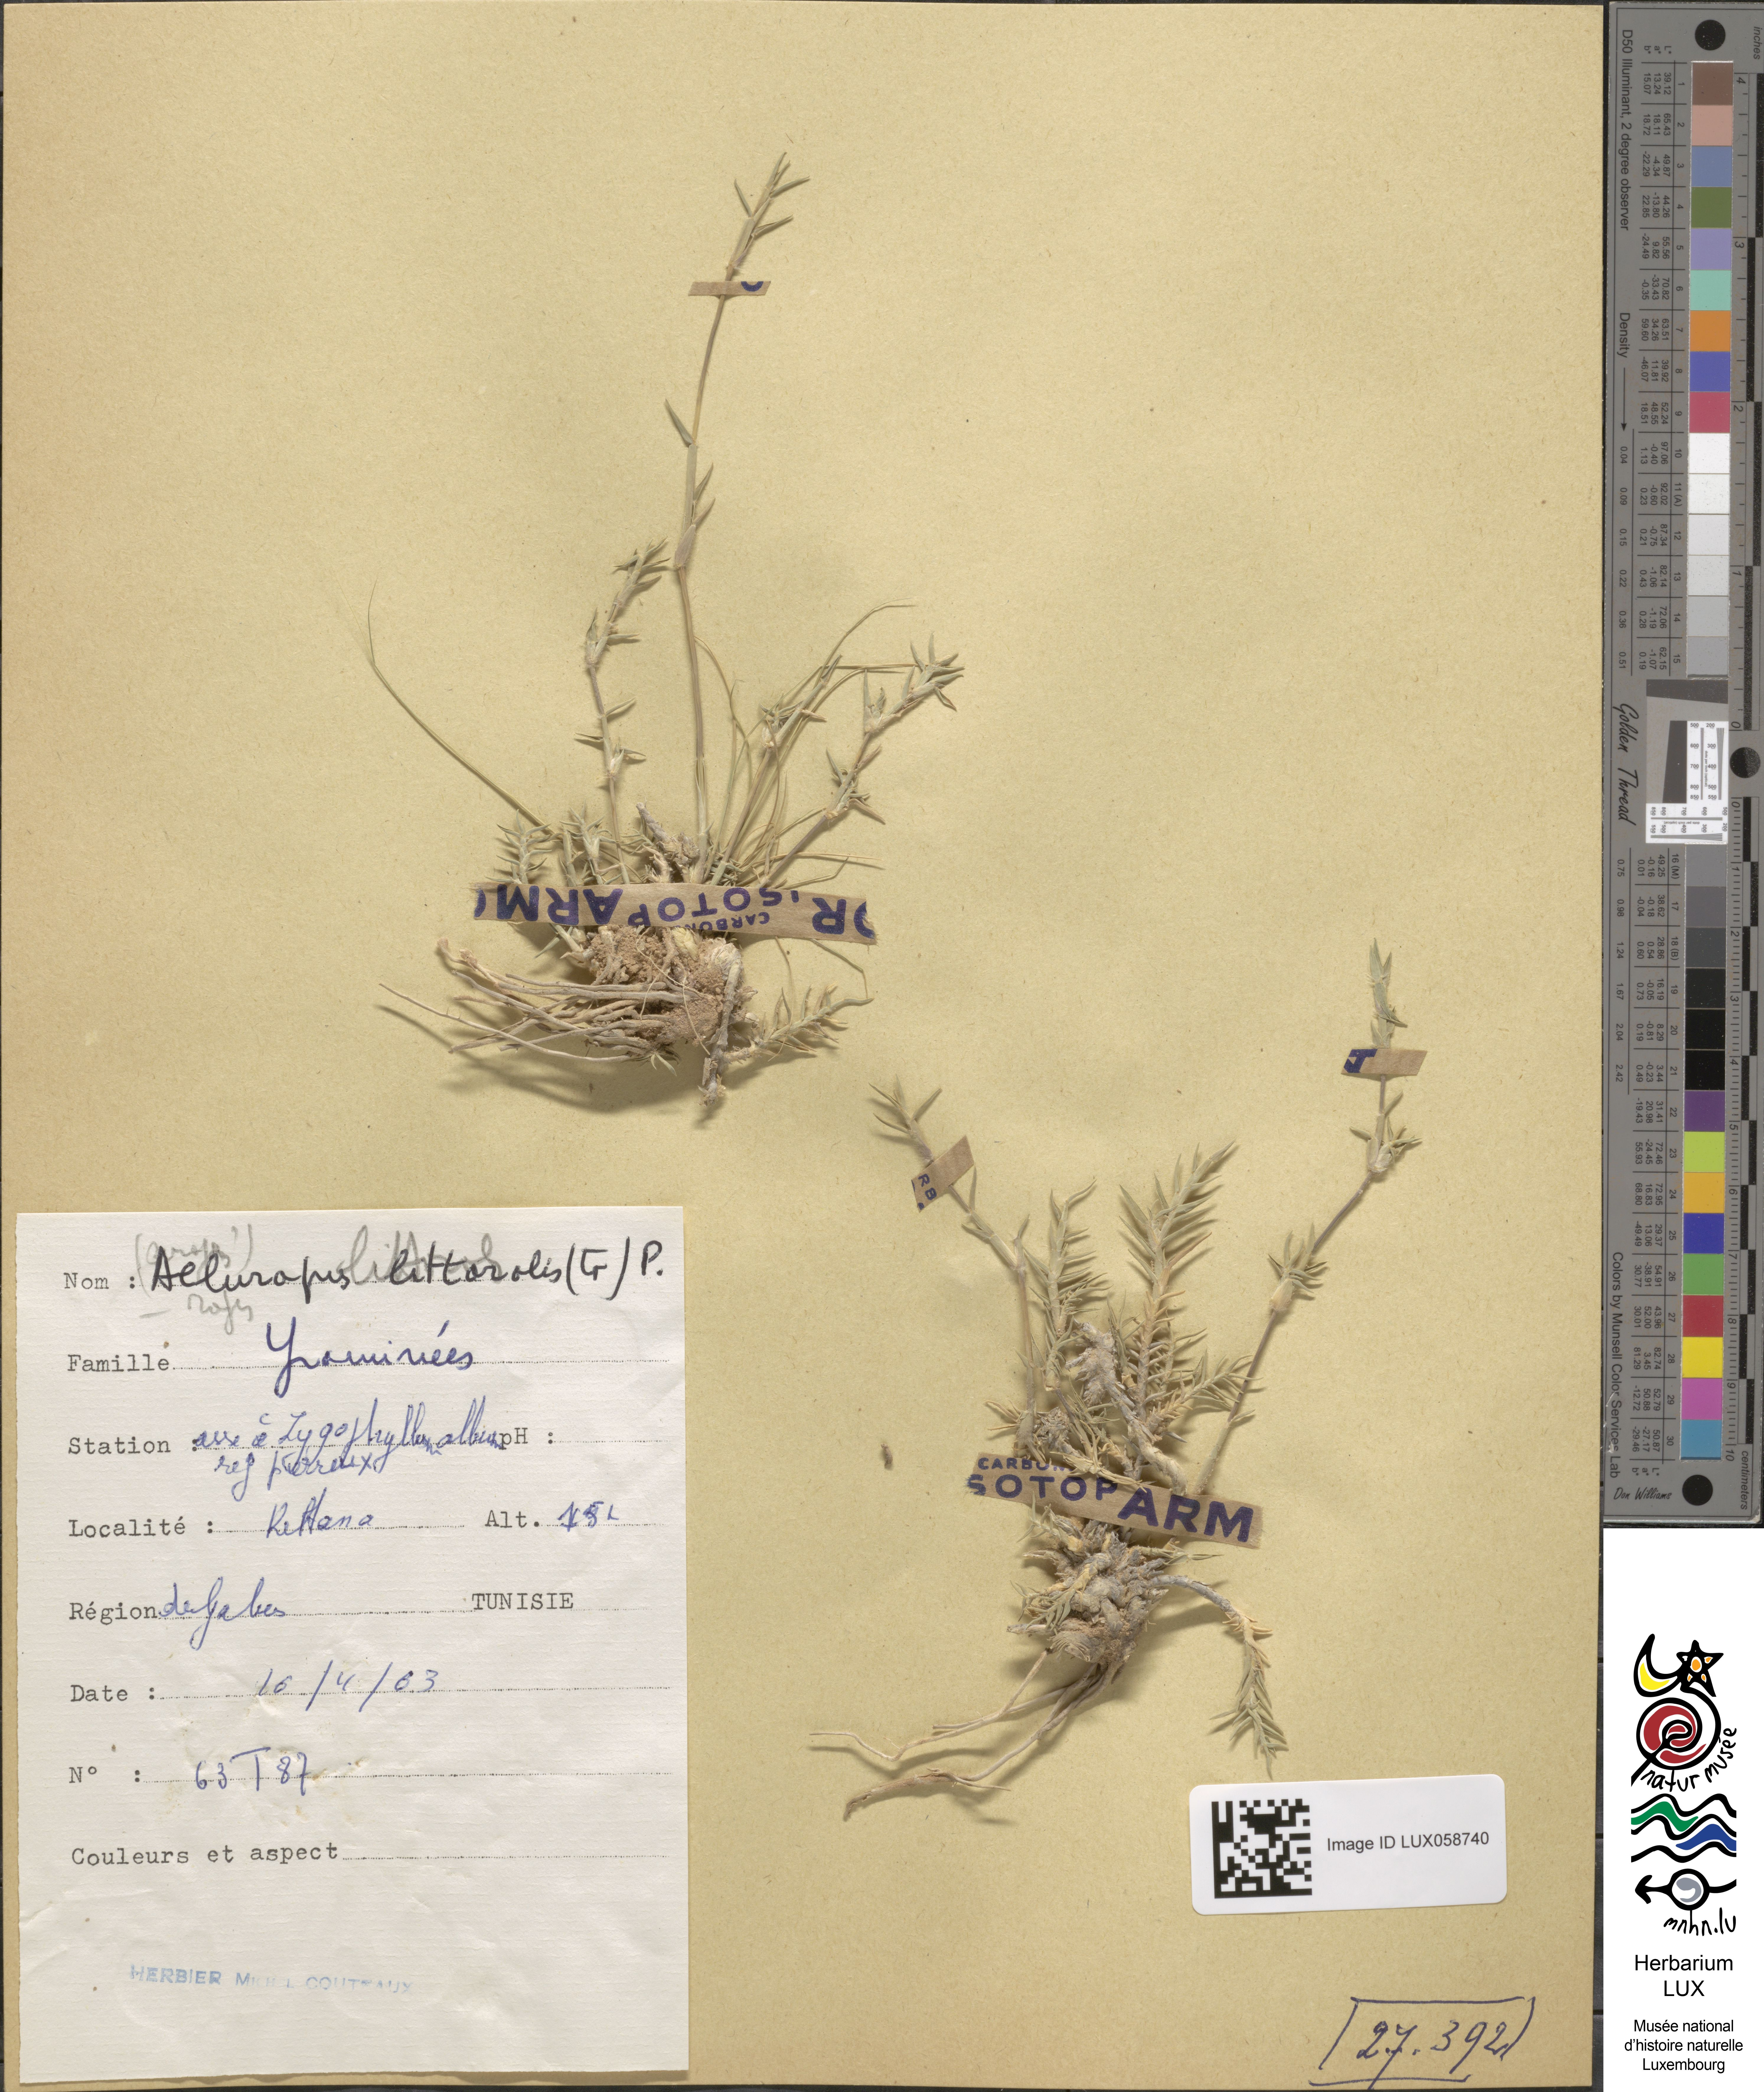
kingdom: Plantae
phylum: Tracheophyta
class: Liliopsida
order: Poales
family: Poaceae
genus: Aeluropus
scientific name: Aeluropus littoralis
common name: Indian walnut
